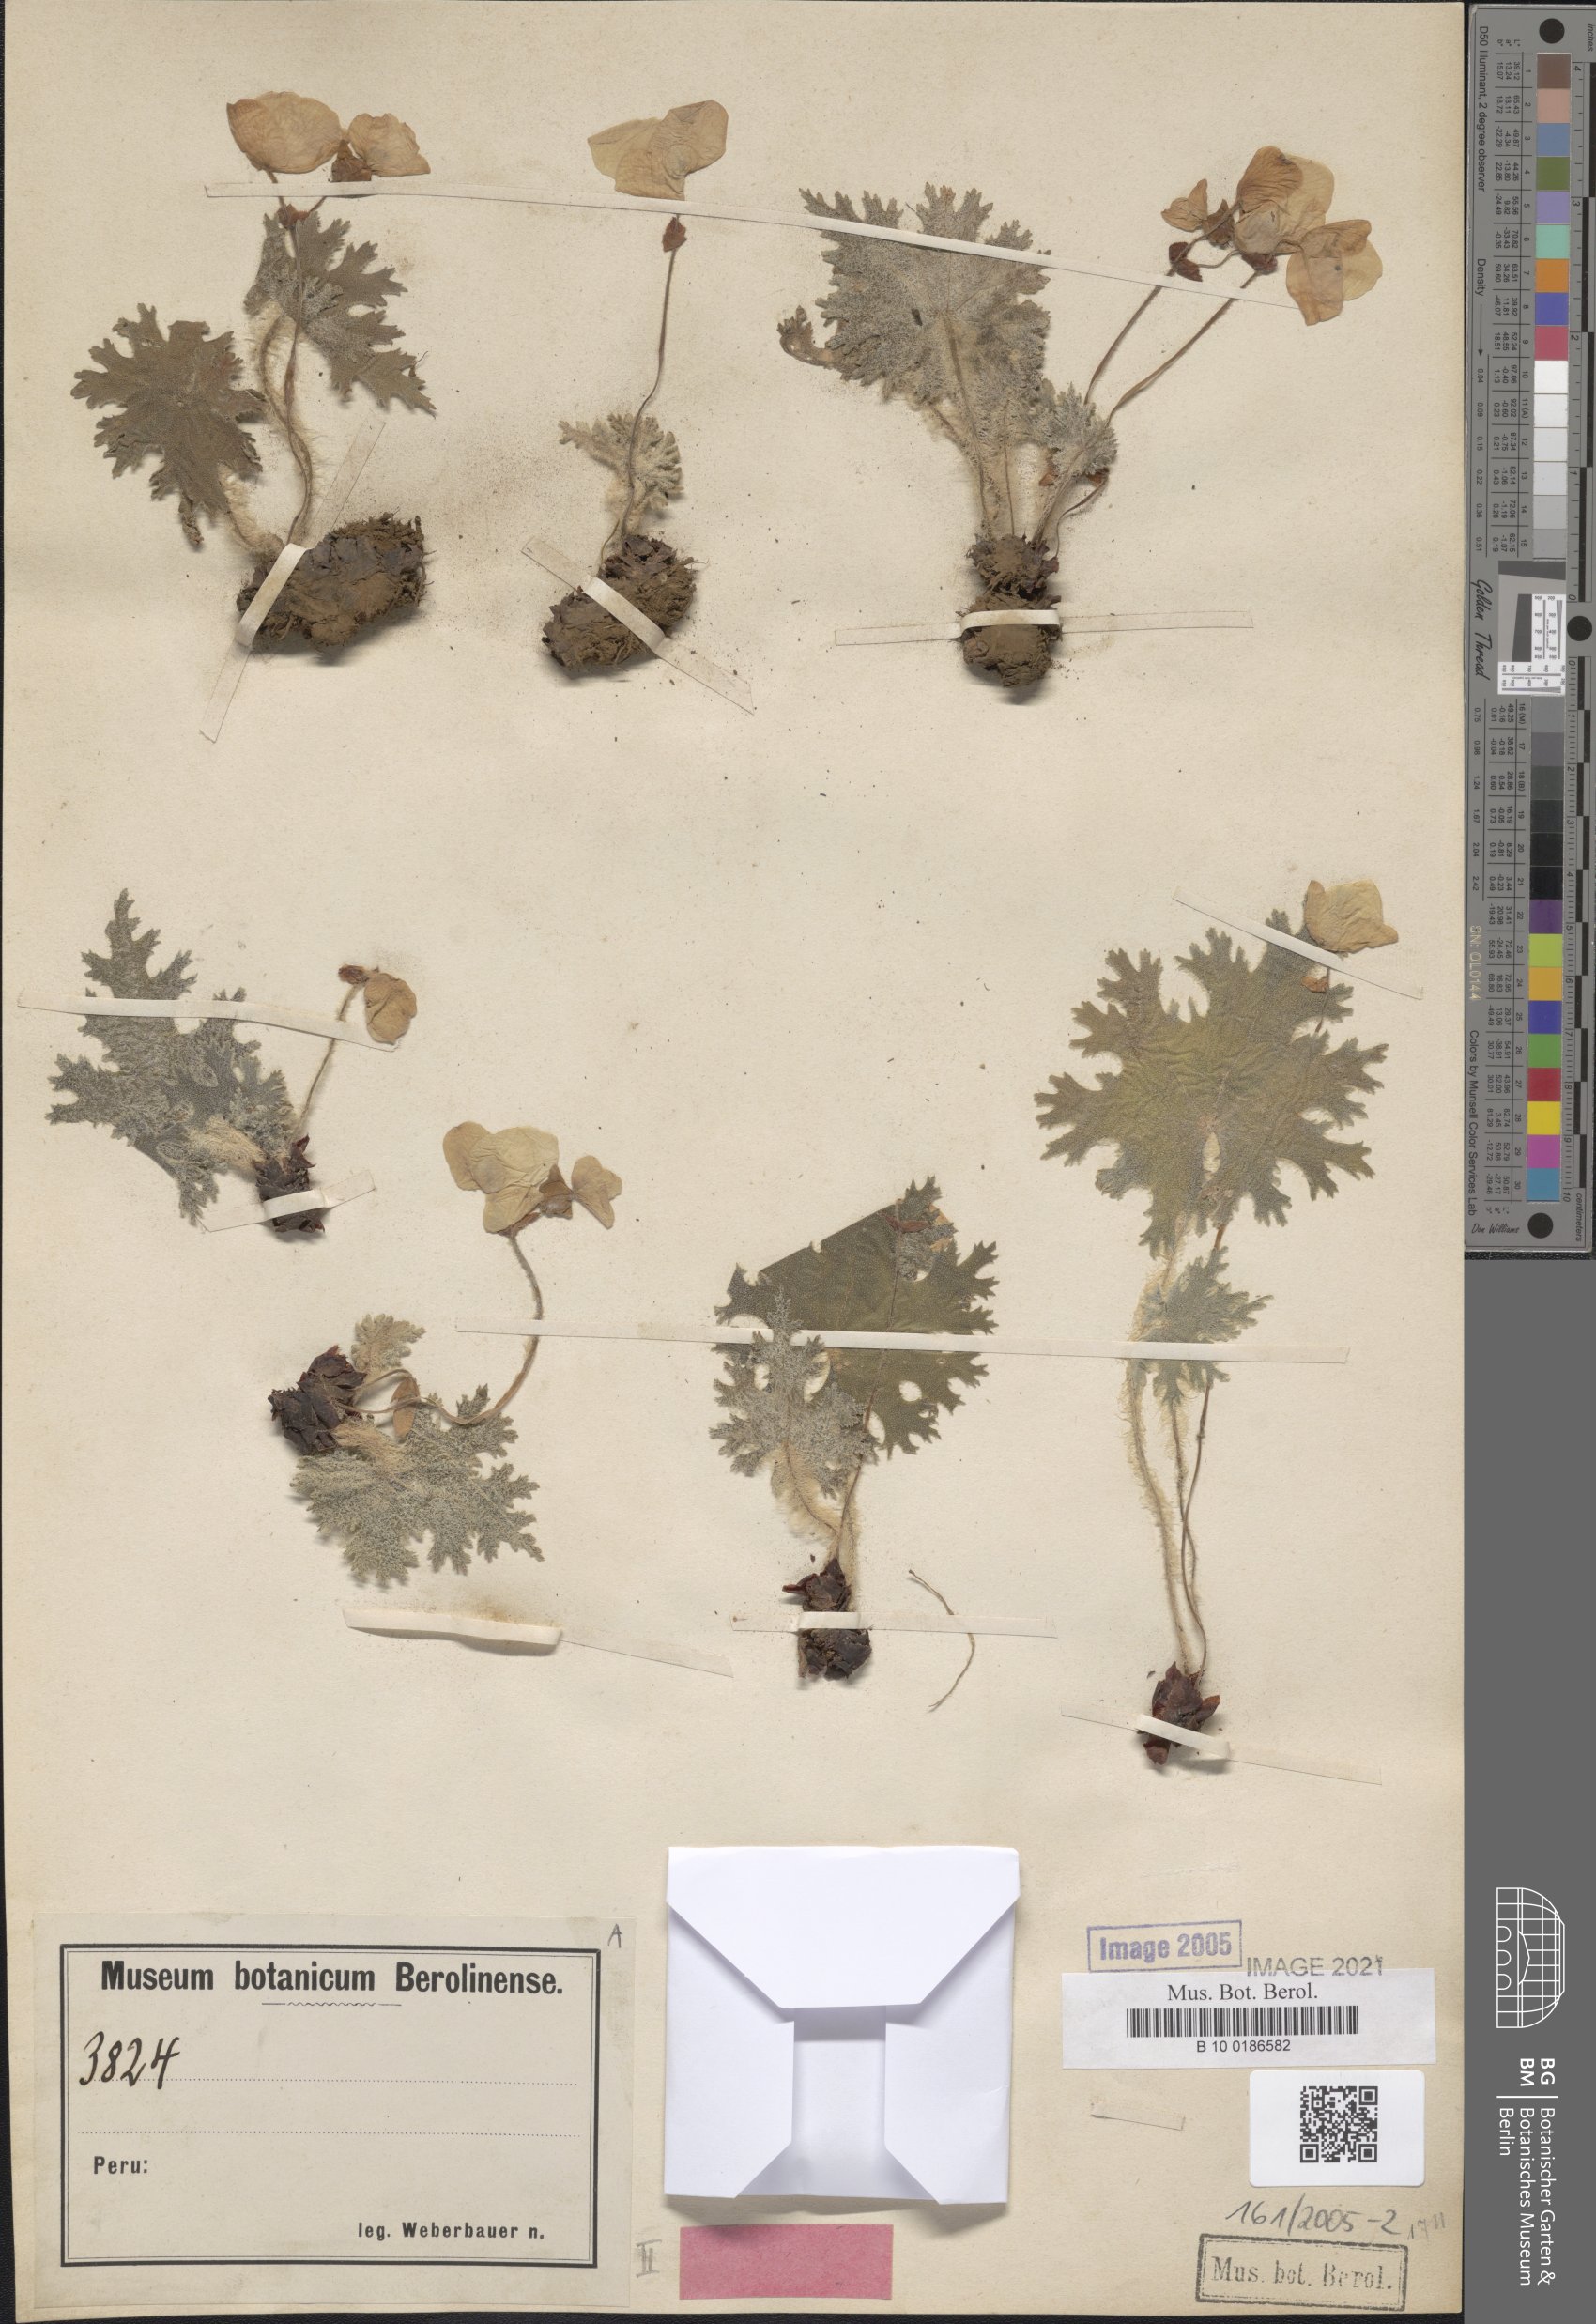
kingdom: Plantae
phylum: Tracheophyta
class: Magnoliopsida
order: Cucurbitales
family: Begoniaceae
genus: Begonia
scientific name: Begonia weberbaueri
